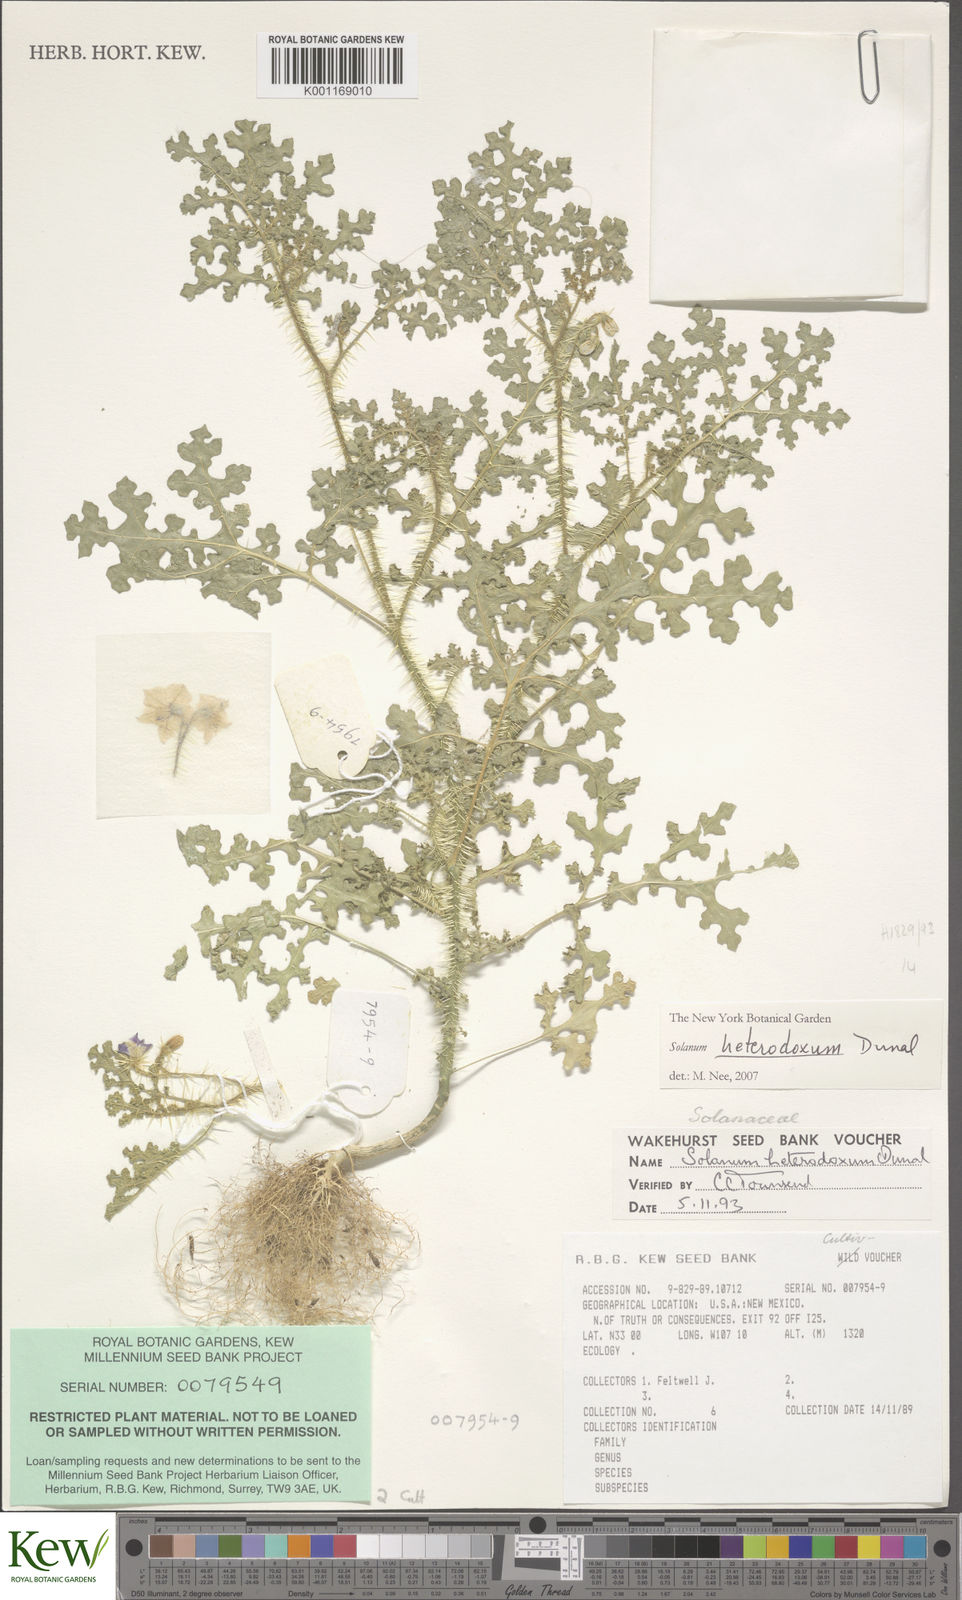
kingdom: Plantae
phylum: Tracheophyta
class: Magnoliopsida
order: Solanales
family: Solanaceae
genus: Solanum
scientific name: Solanum heterodoxum
